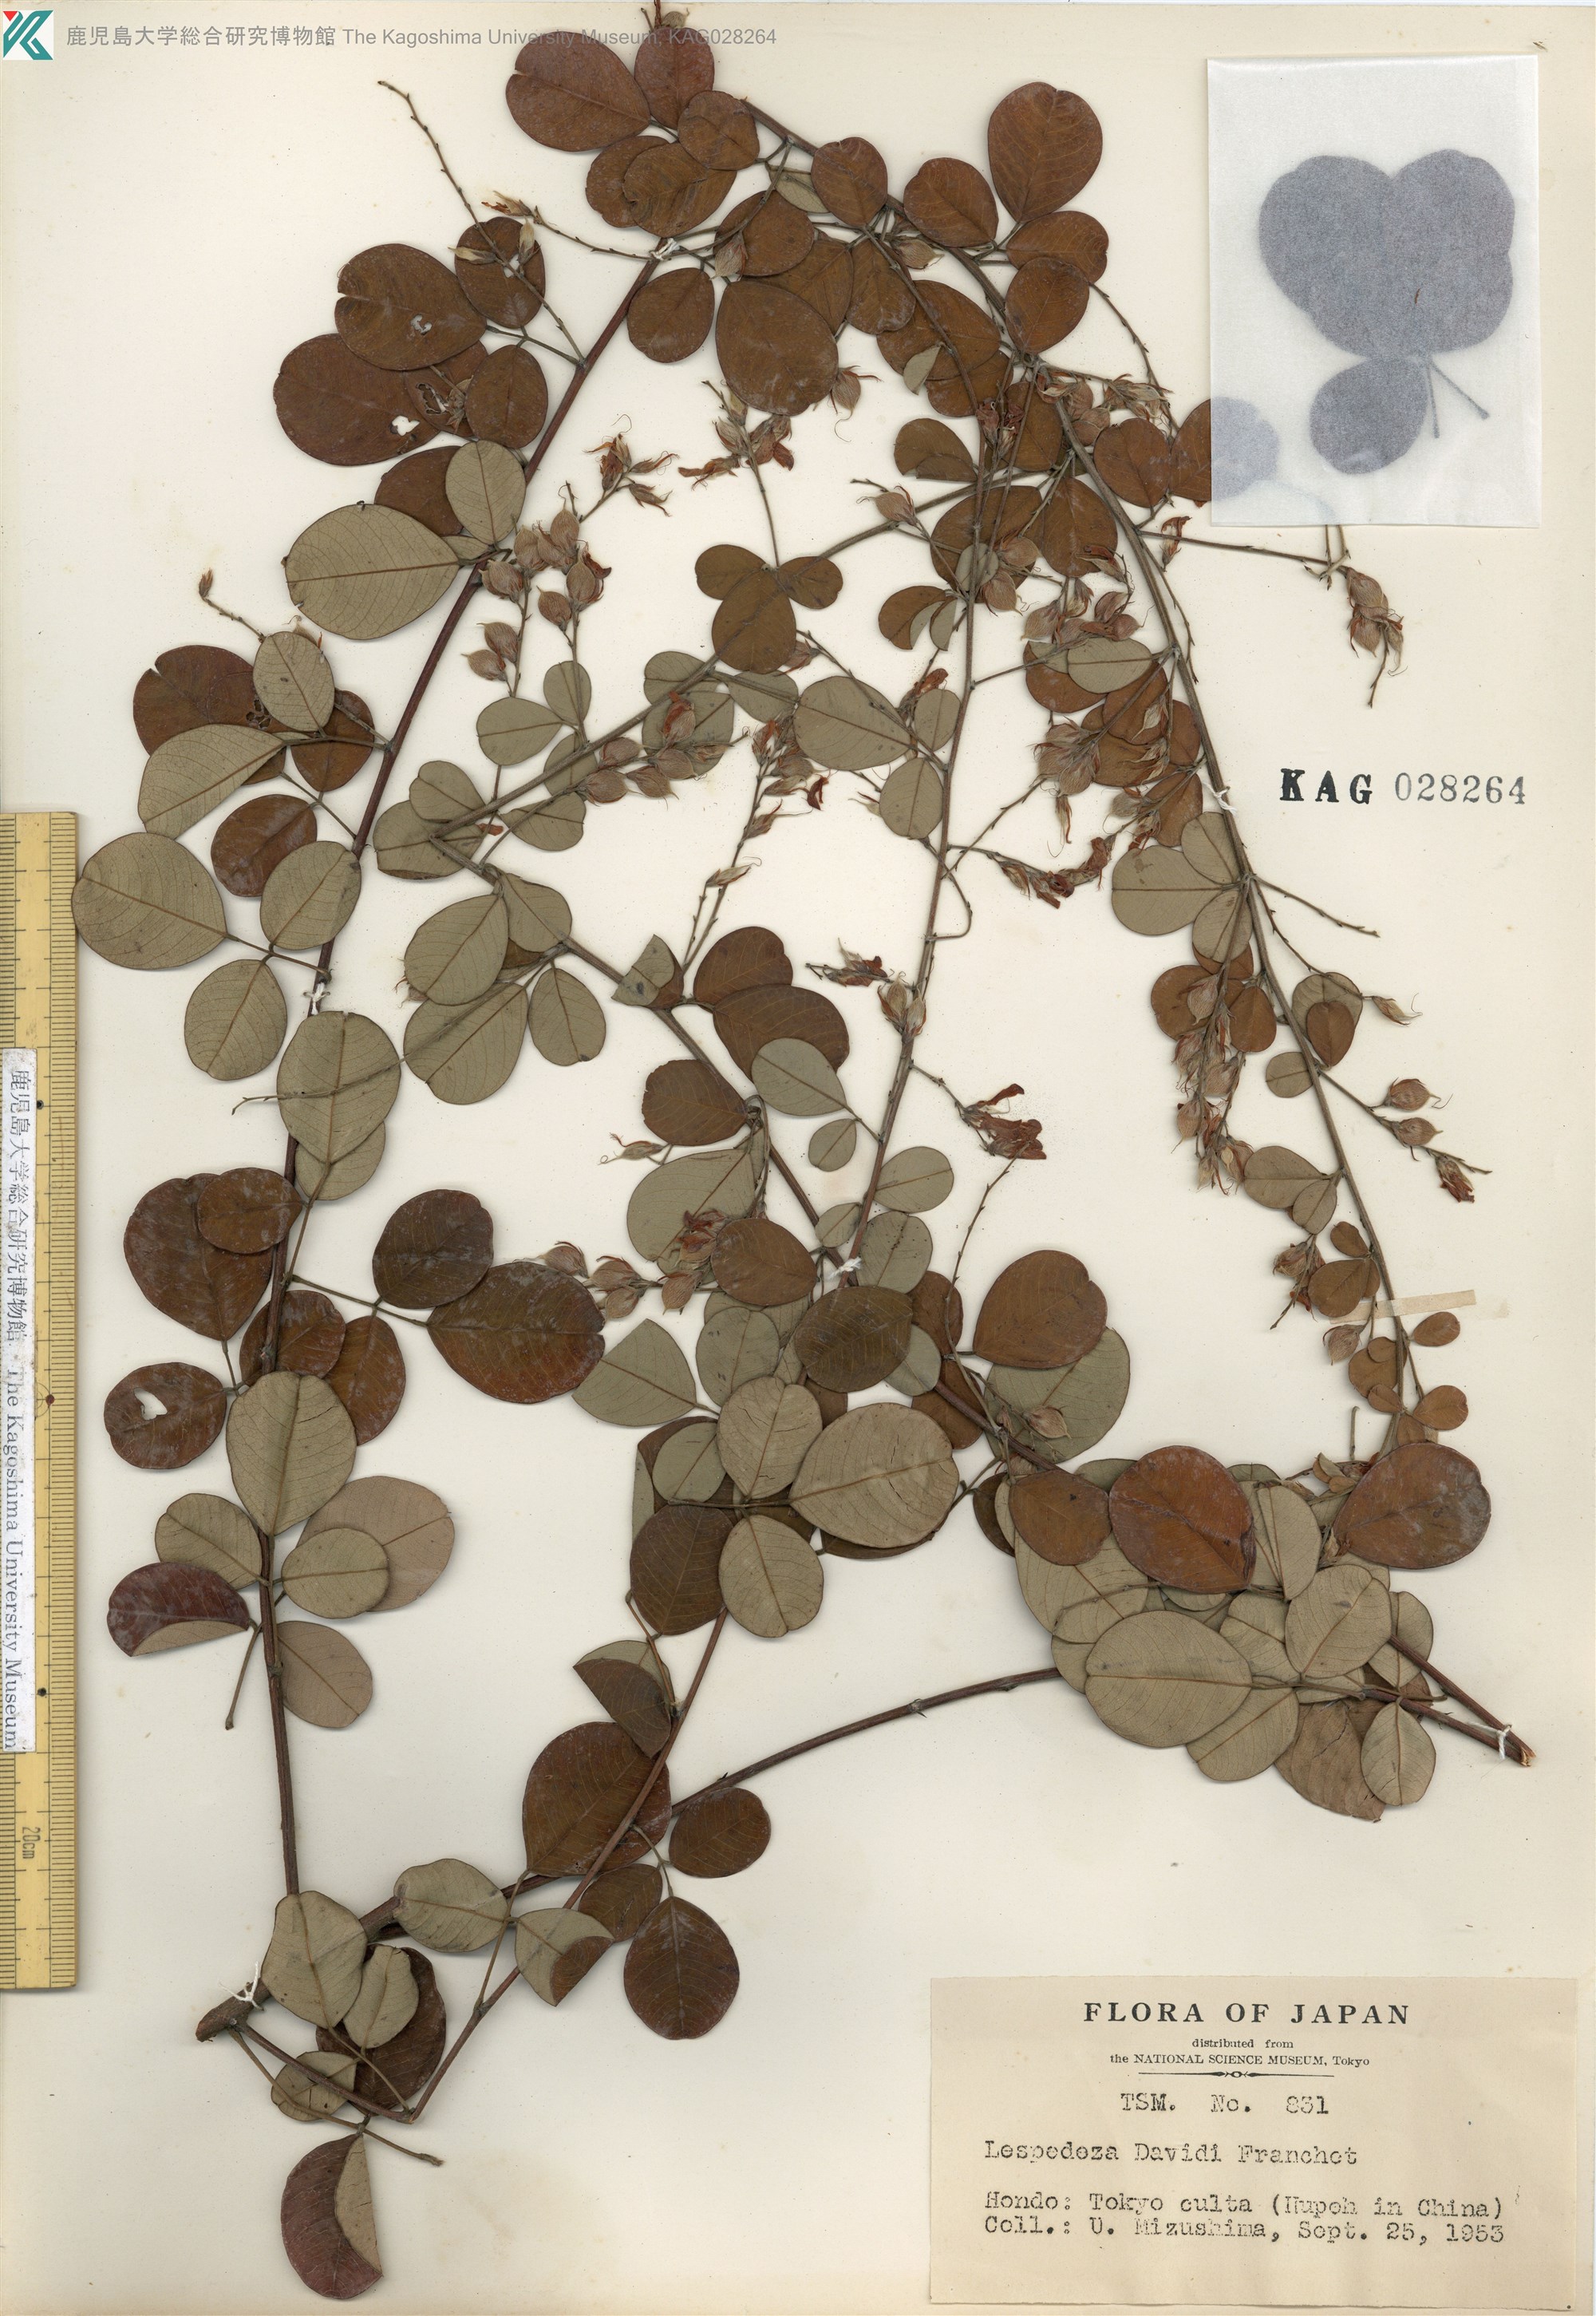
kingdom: Plantae
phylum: Tracheophyta
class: Magnoliopsida
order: Fabales
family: Fabaceae
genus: Lespedeza
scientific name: Lespedeza davidii
